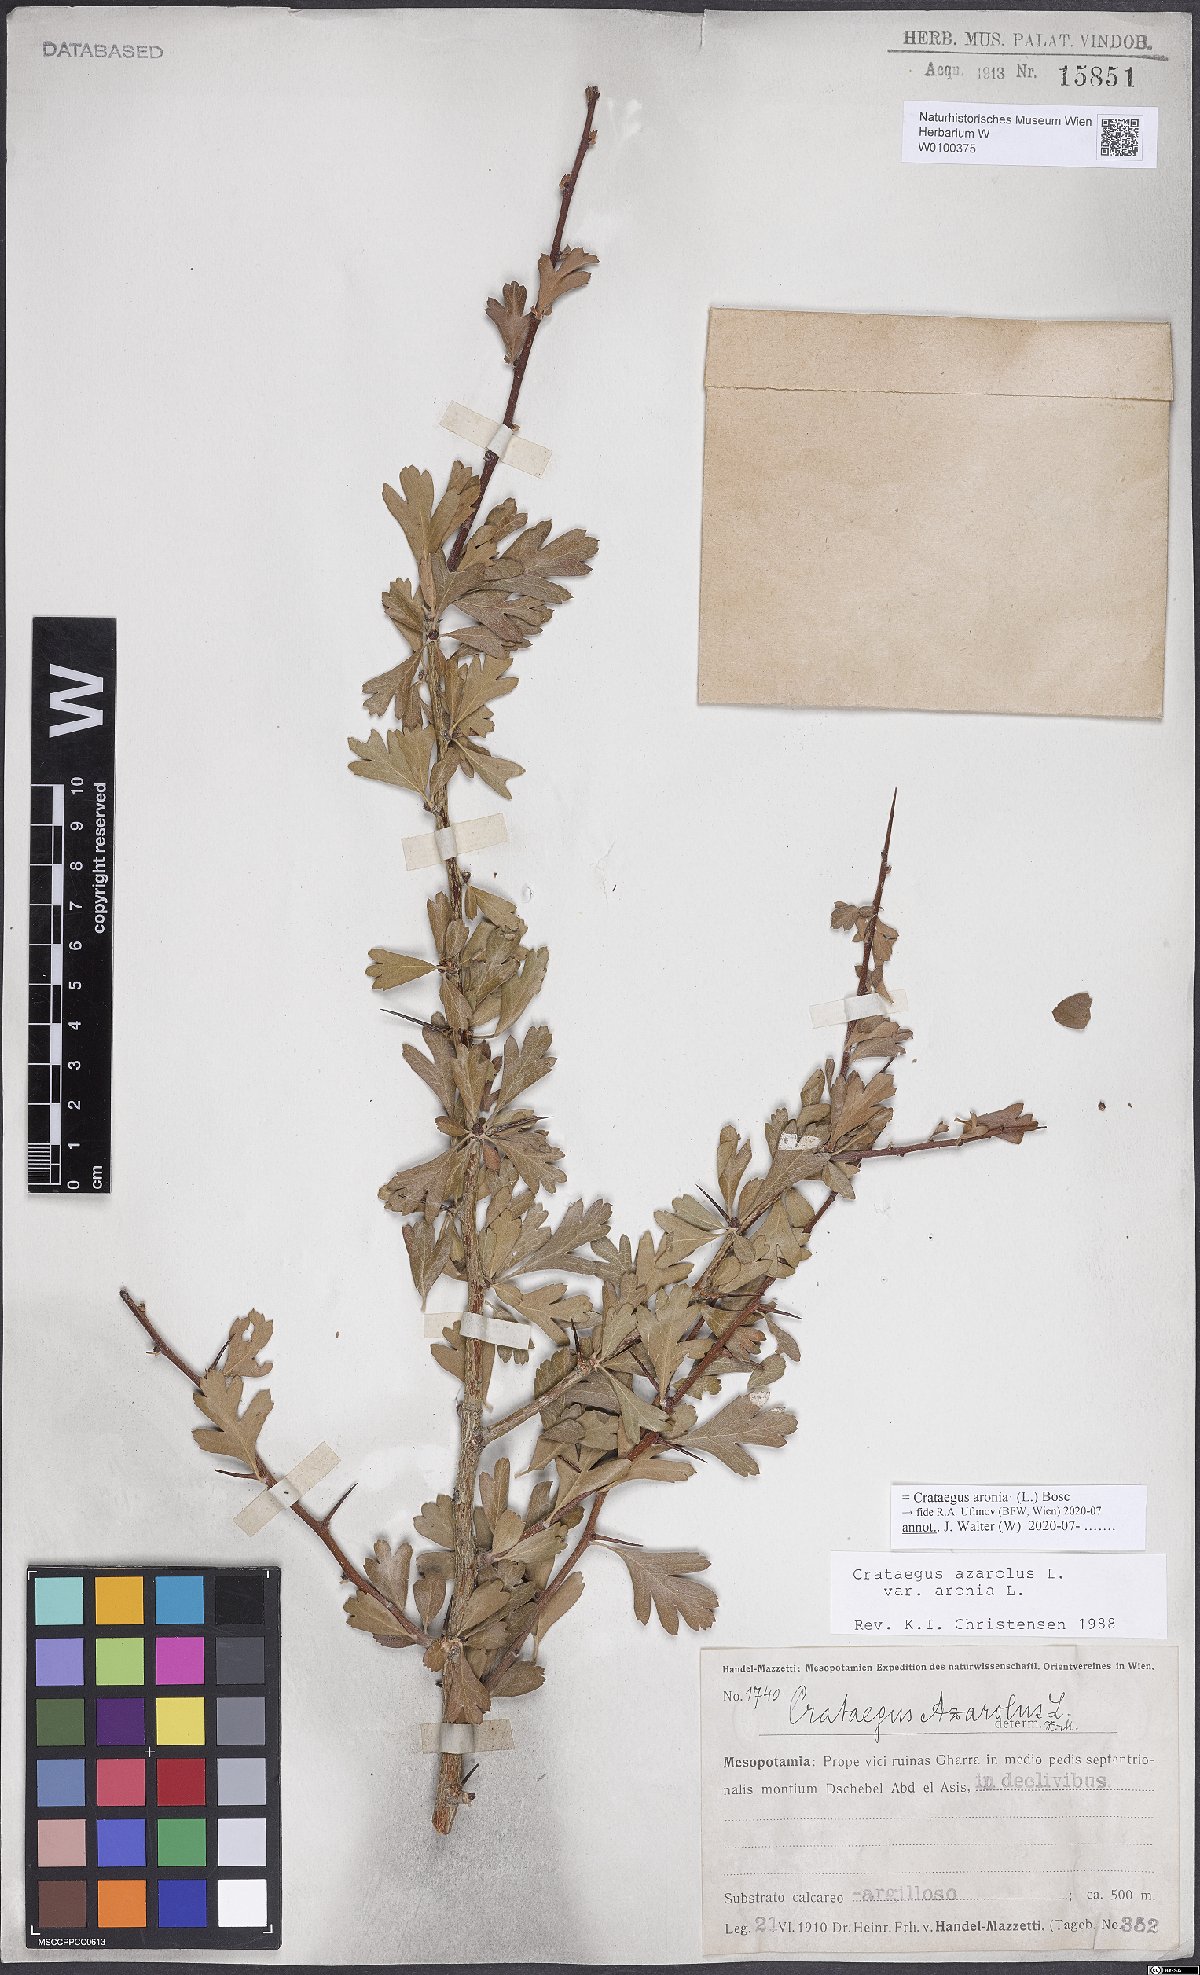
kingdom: Plantae
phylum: Tracheophyta
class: Magnoliopsida
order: Rosales
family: Rosaceae
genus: Crataegus
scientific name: Crataegus azarolus
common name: Azarole
